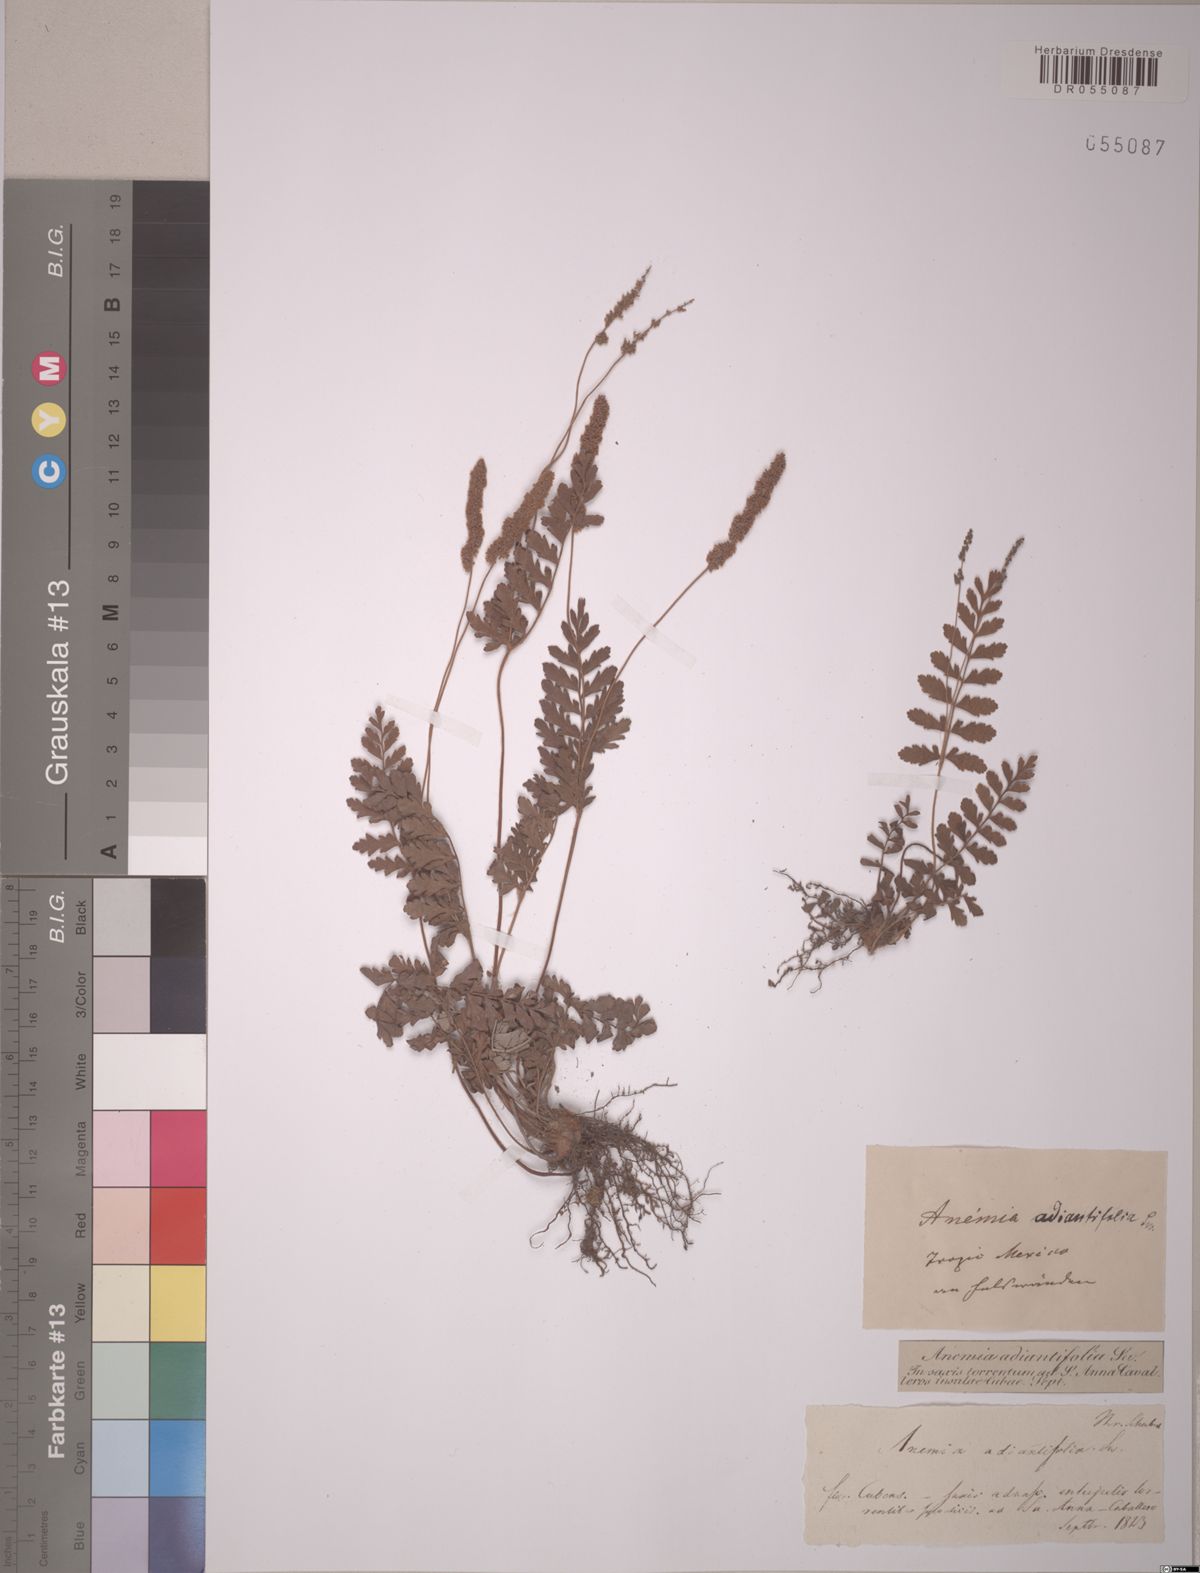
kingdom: Plantae
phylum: Tracheophyta
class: Polypodiopsida
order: Schizaeales
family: Anemiaceae
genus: Anemia
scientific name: Anemia adiantifolia
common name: Pine fern
